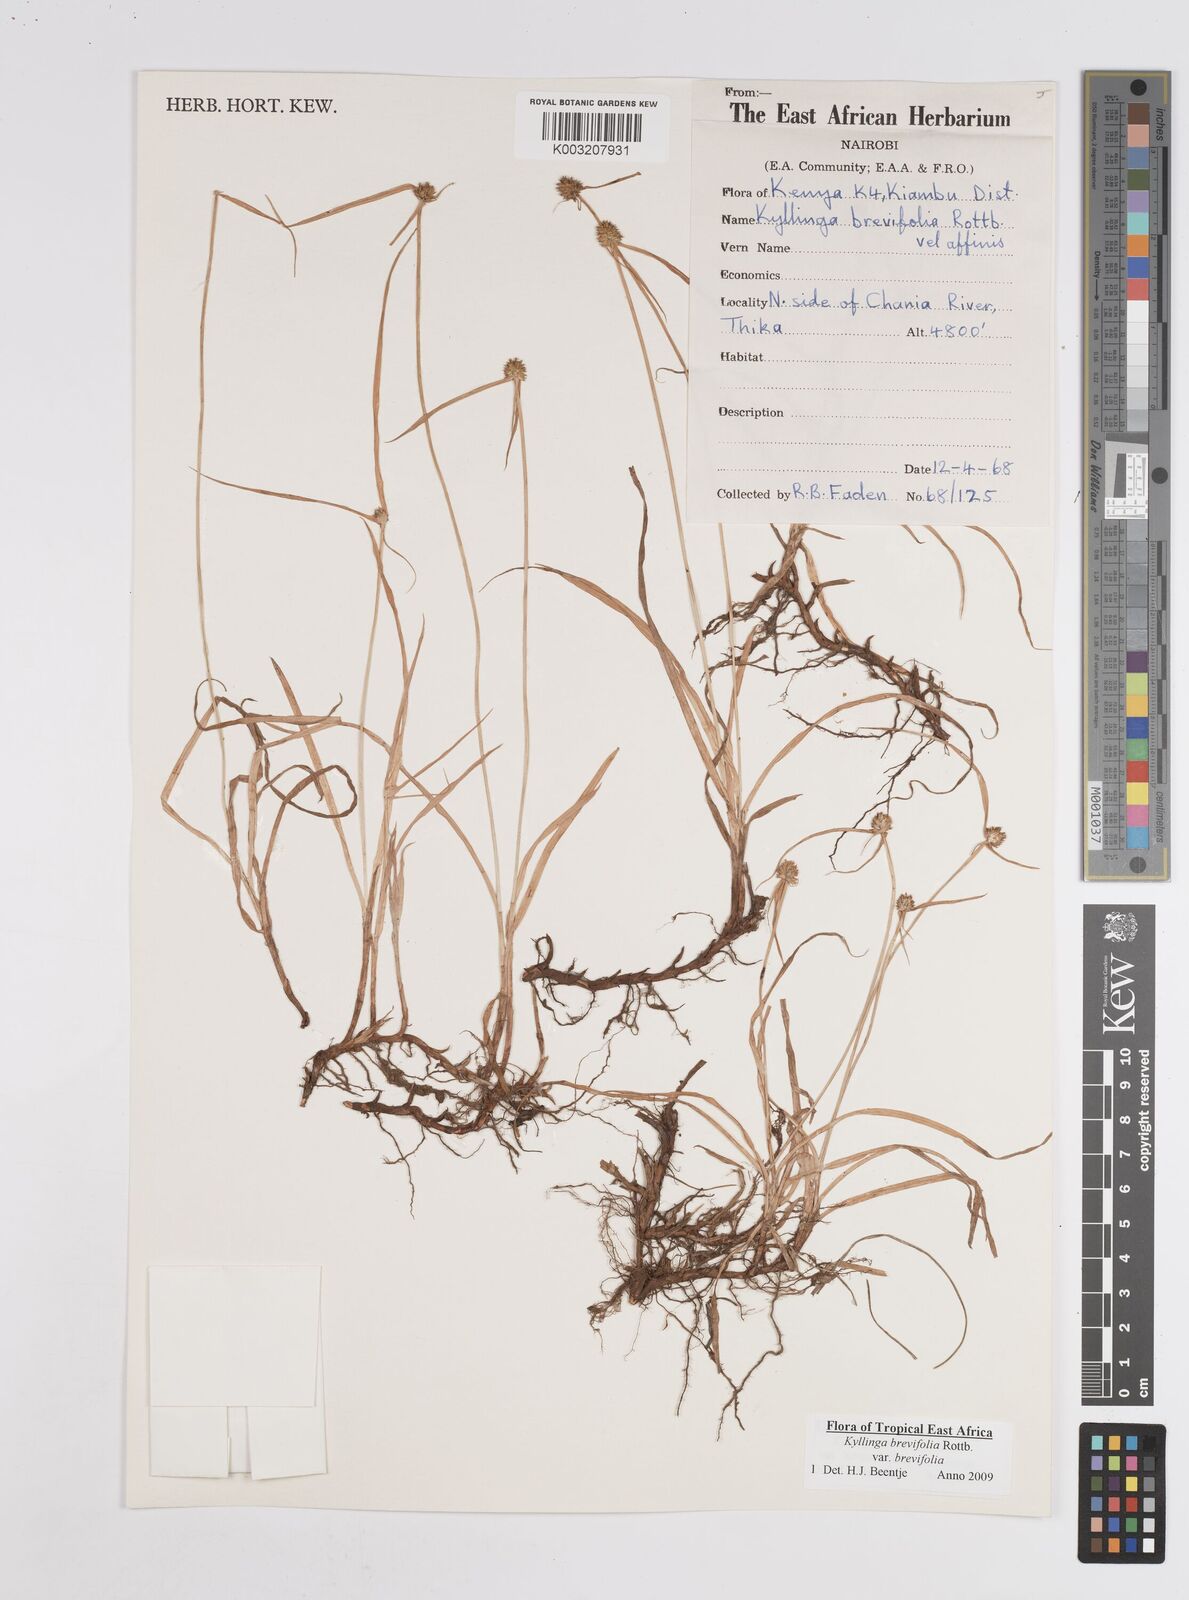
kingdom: Plantae
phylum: Tracheophyta
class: Liliopsida
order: Poales
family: Cyperaceae
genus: Cyperus
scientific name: Cyperus brevifolius
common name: Globe kyllinga
